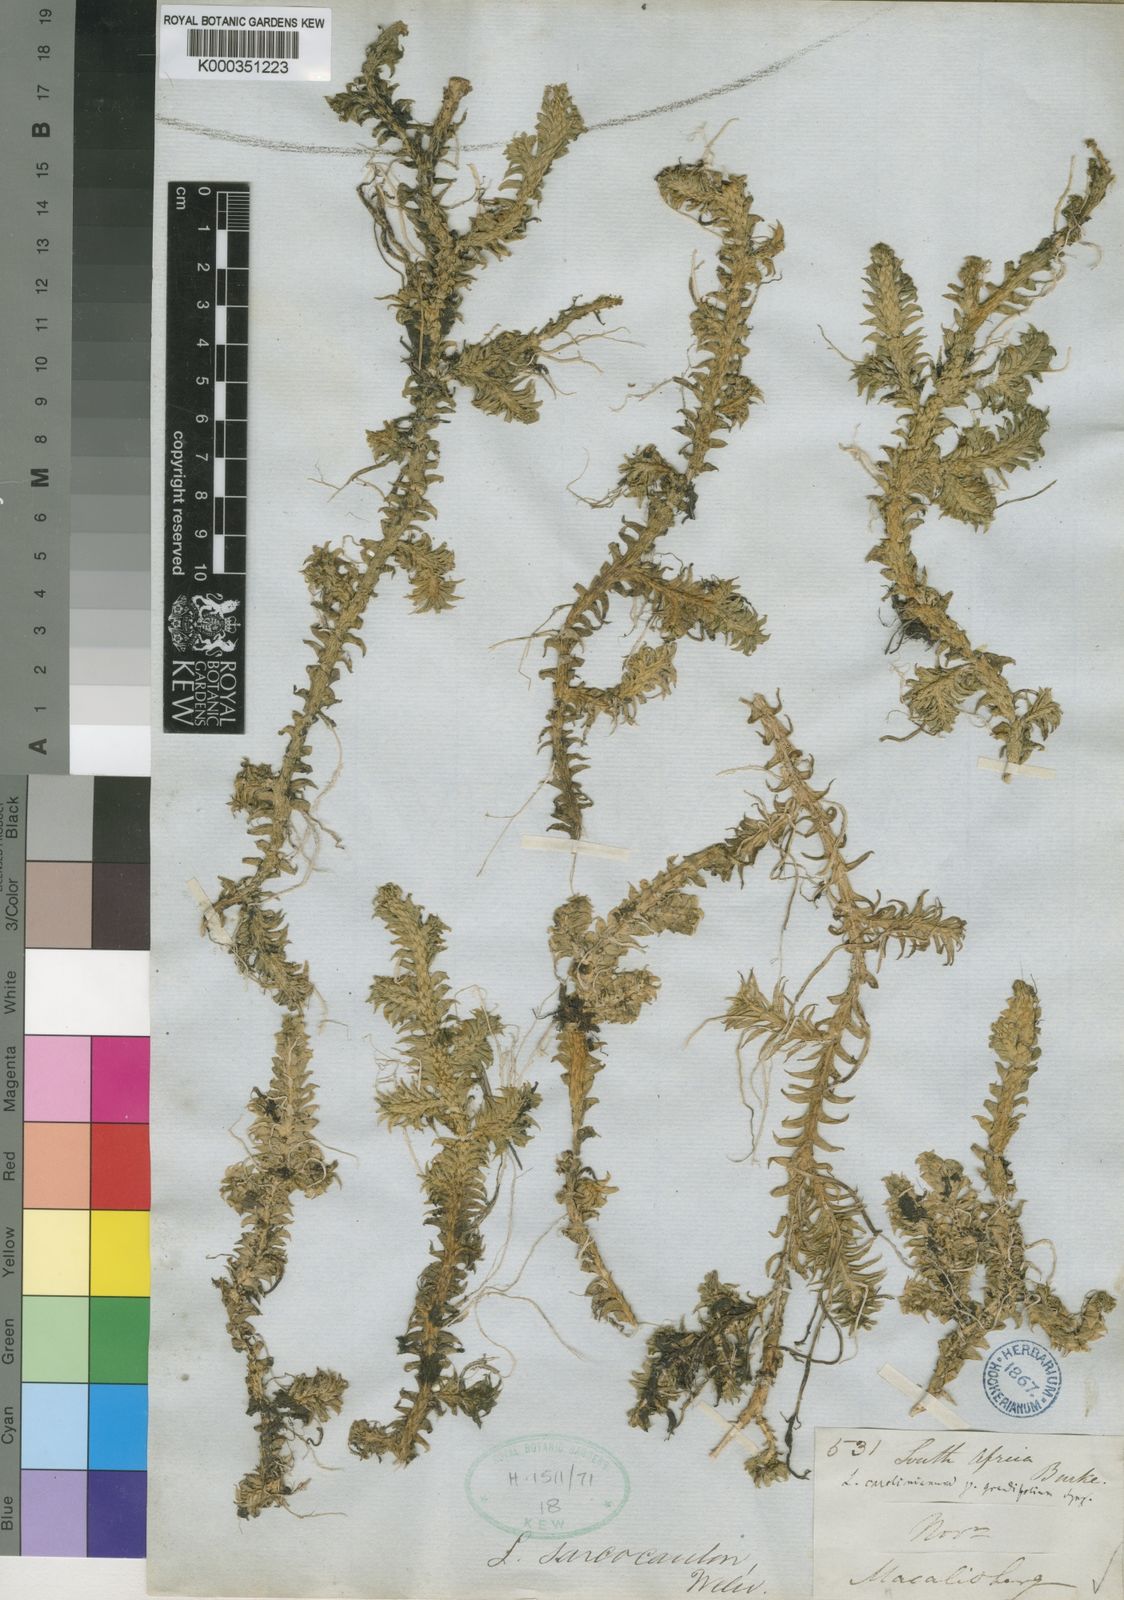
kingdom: Plantae
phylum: Tracheophyta
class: Lycopodiopsida
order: Lycopodiales
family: Lycopodiaceae
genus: Pseudolycopodiella
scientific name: Pseudolycopodiella caroliniana
